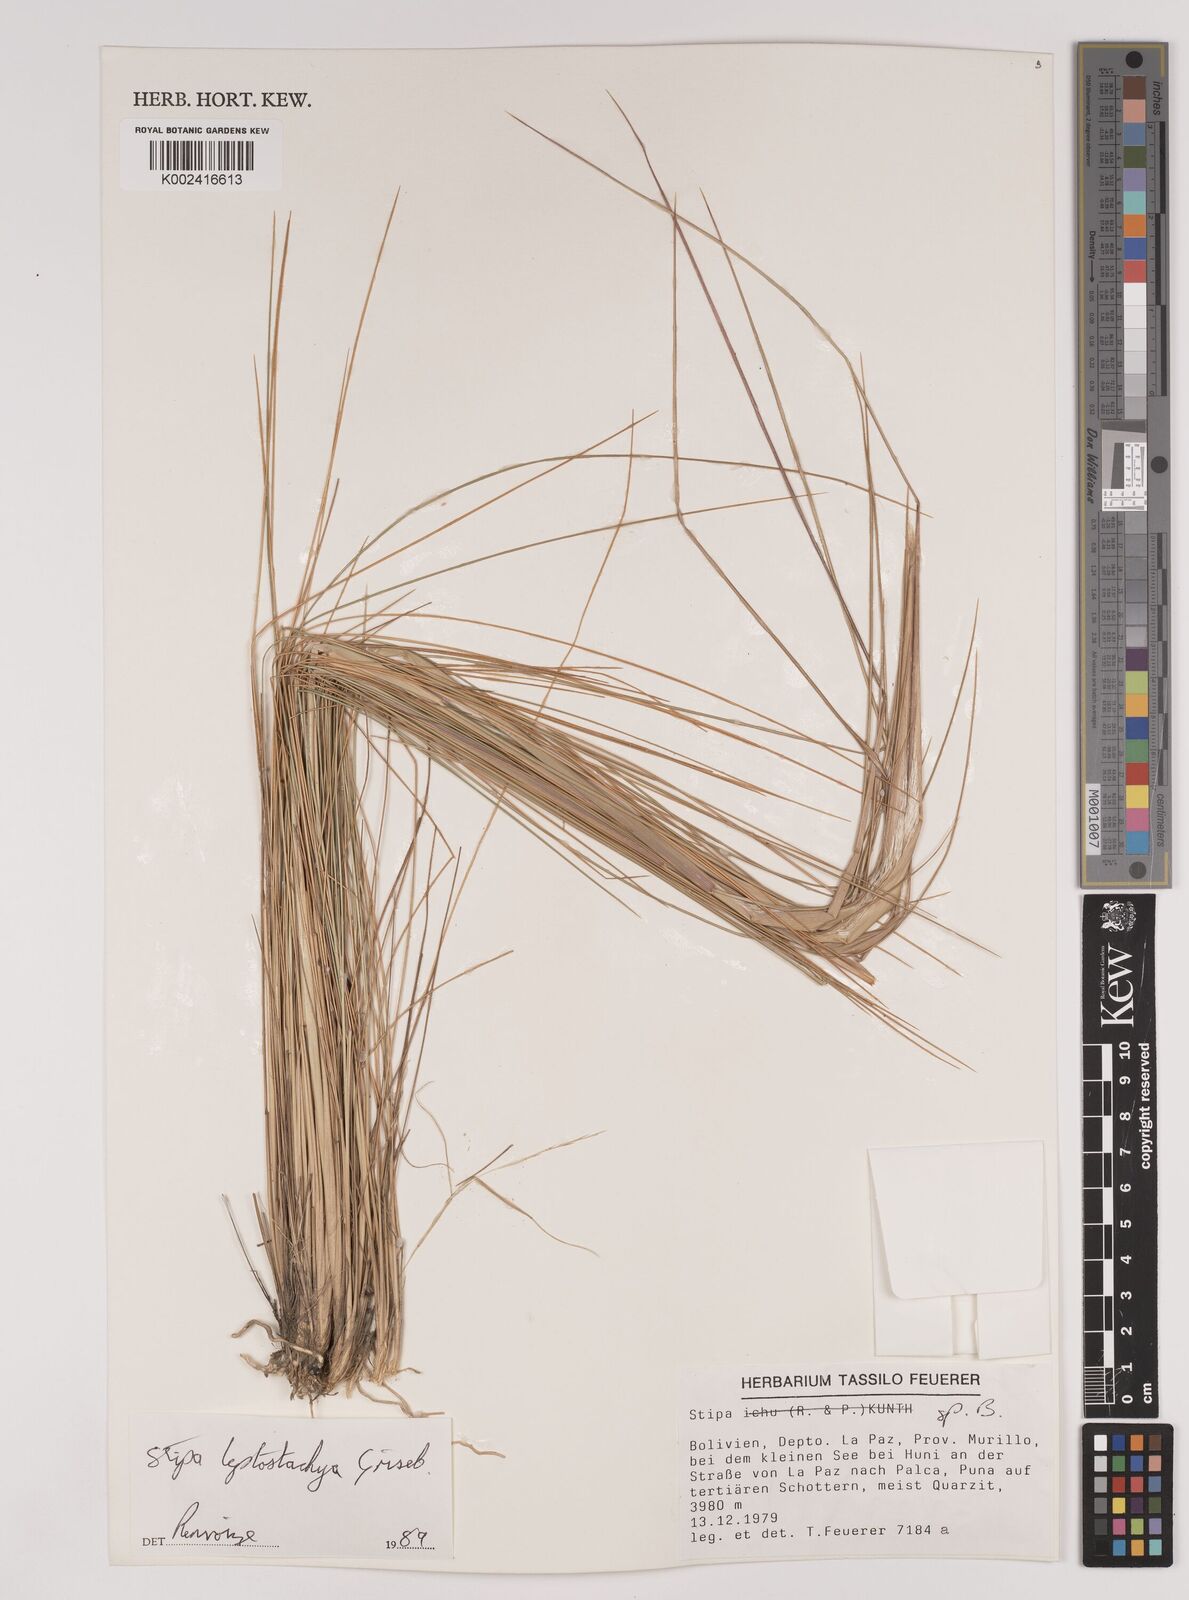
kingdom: Plantae
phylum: Tracheophyta
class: Liliopsida
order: Poales
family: Poaceae
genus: Austrostipa
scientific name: Austrostipa tenuifolia
